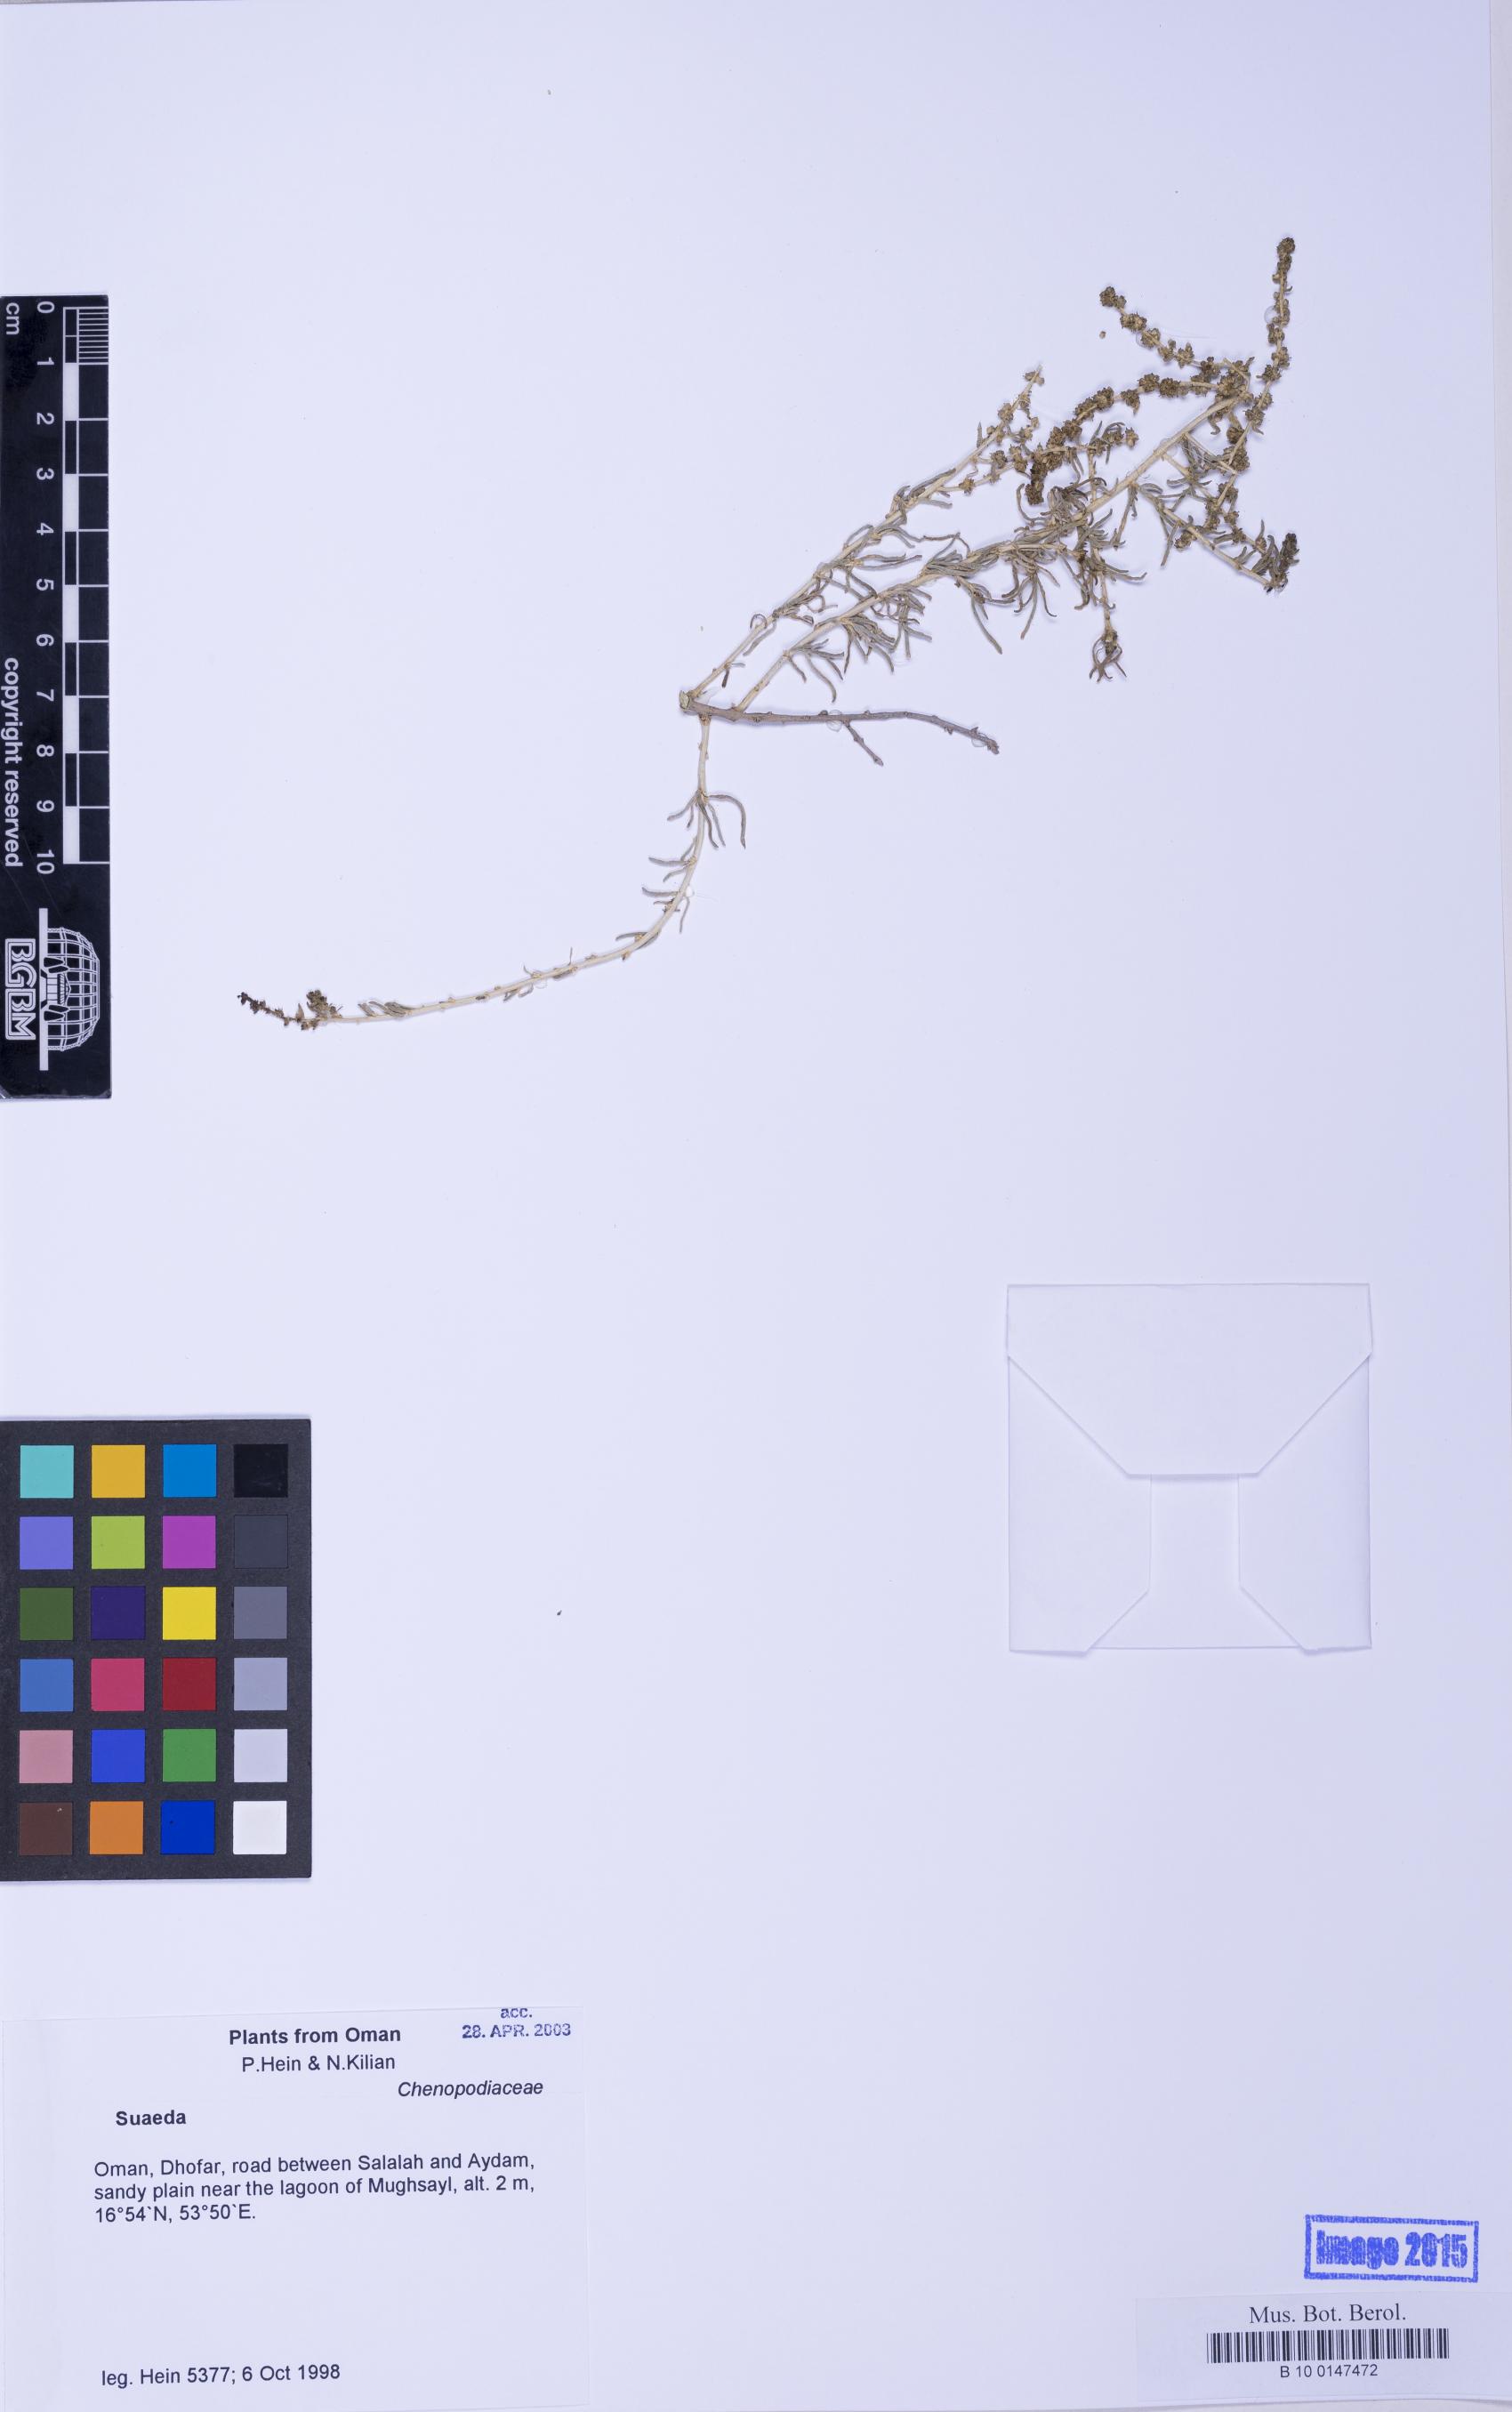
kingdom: Plantae
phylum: Tracheophyta
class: Magnoliopsida
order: Caryophyllales
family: Amaranthaceae
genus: Suaeda
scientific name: Suaeda
